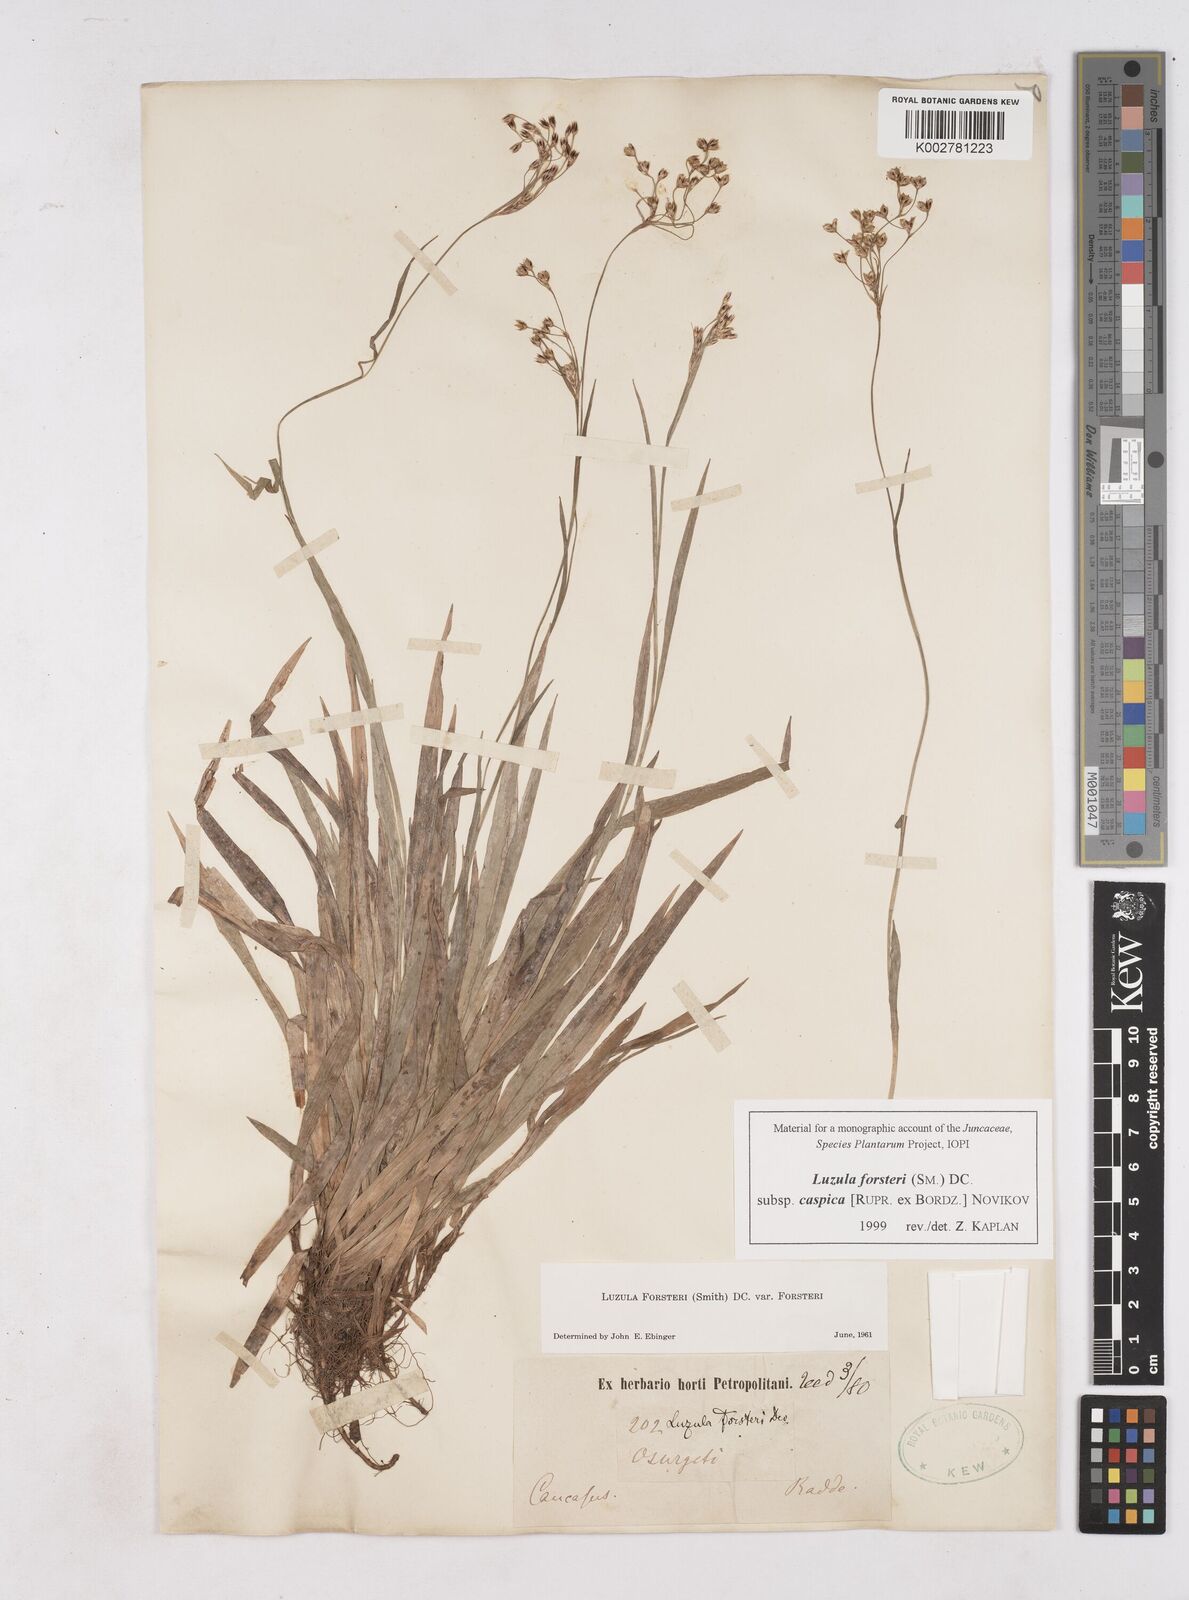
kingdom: Plantae
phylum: Tracheophyta
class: Liliopsida
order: Poales
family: Juncaceae
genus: Luzula
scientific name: Luzula forsteri
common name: Southern wood-rush
